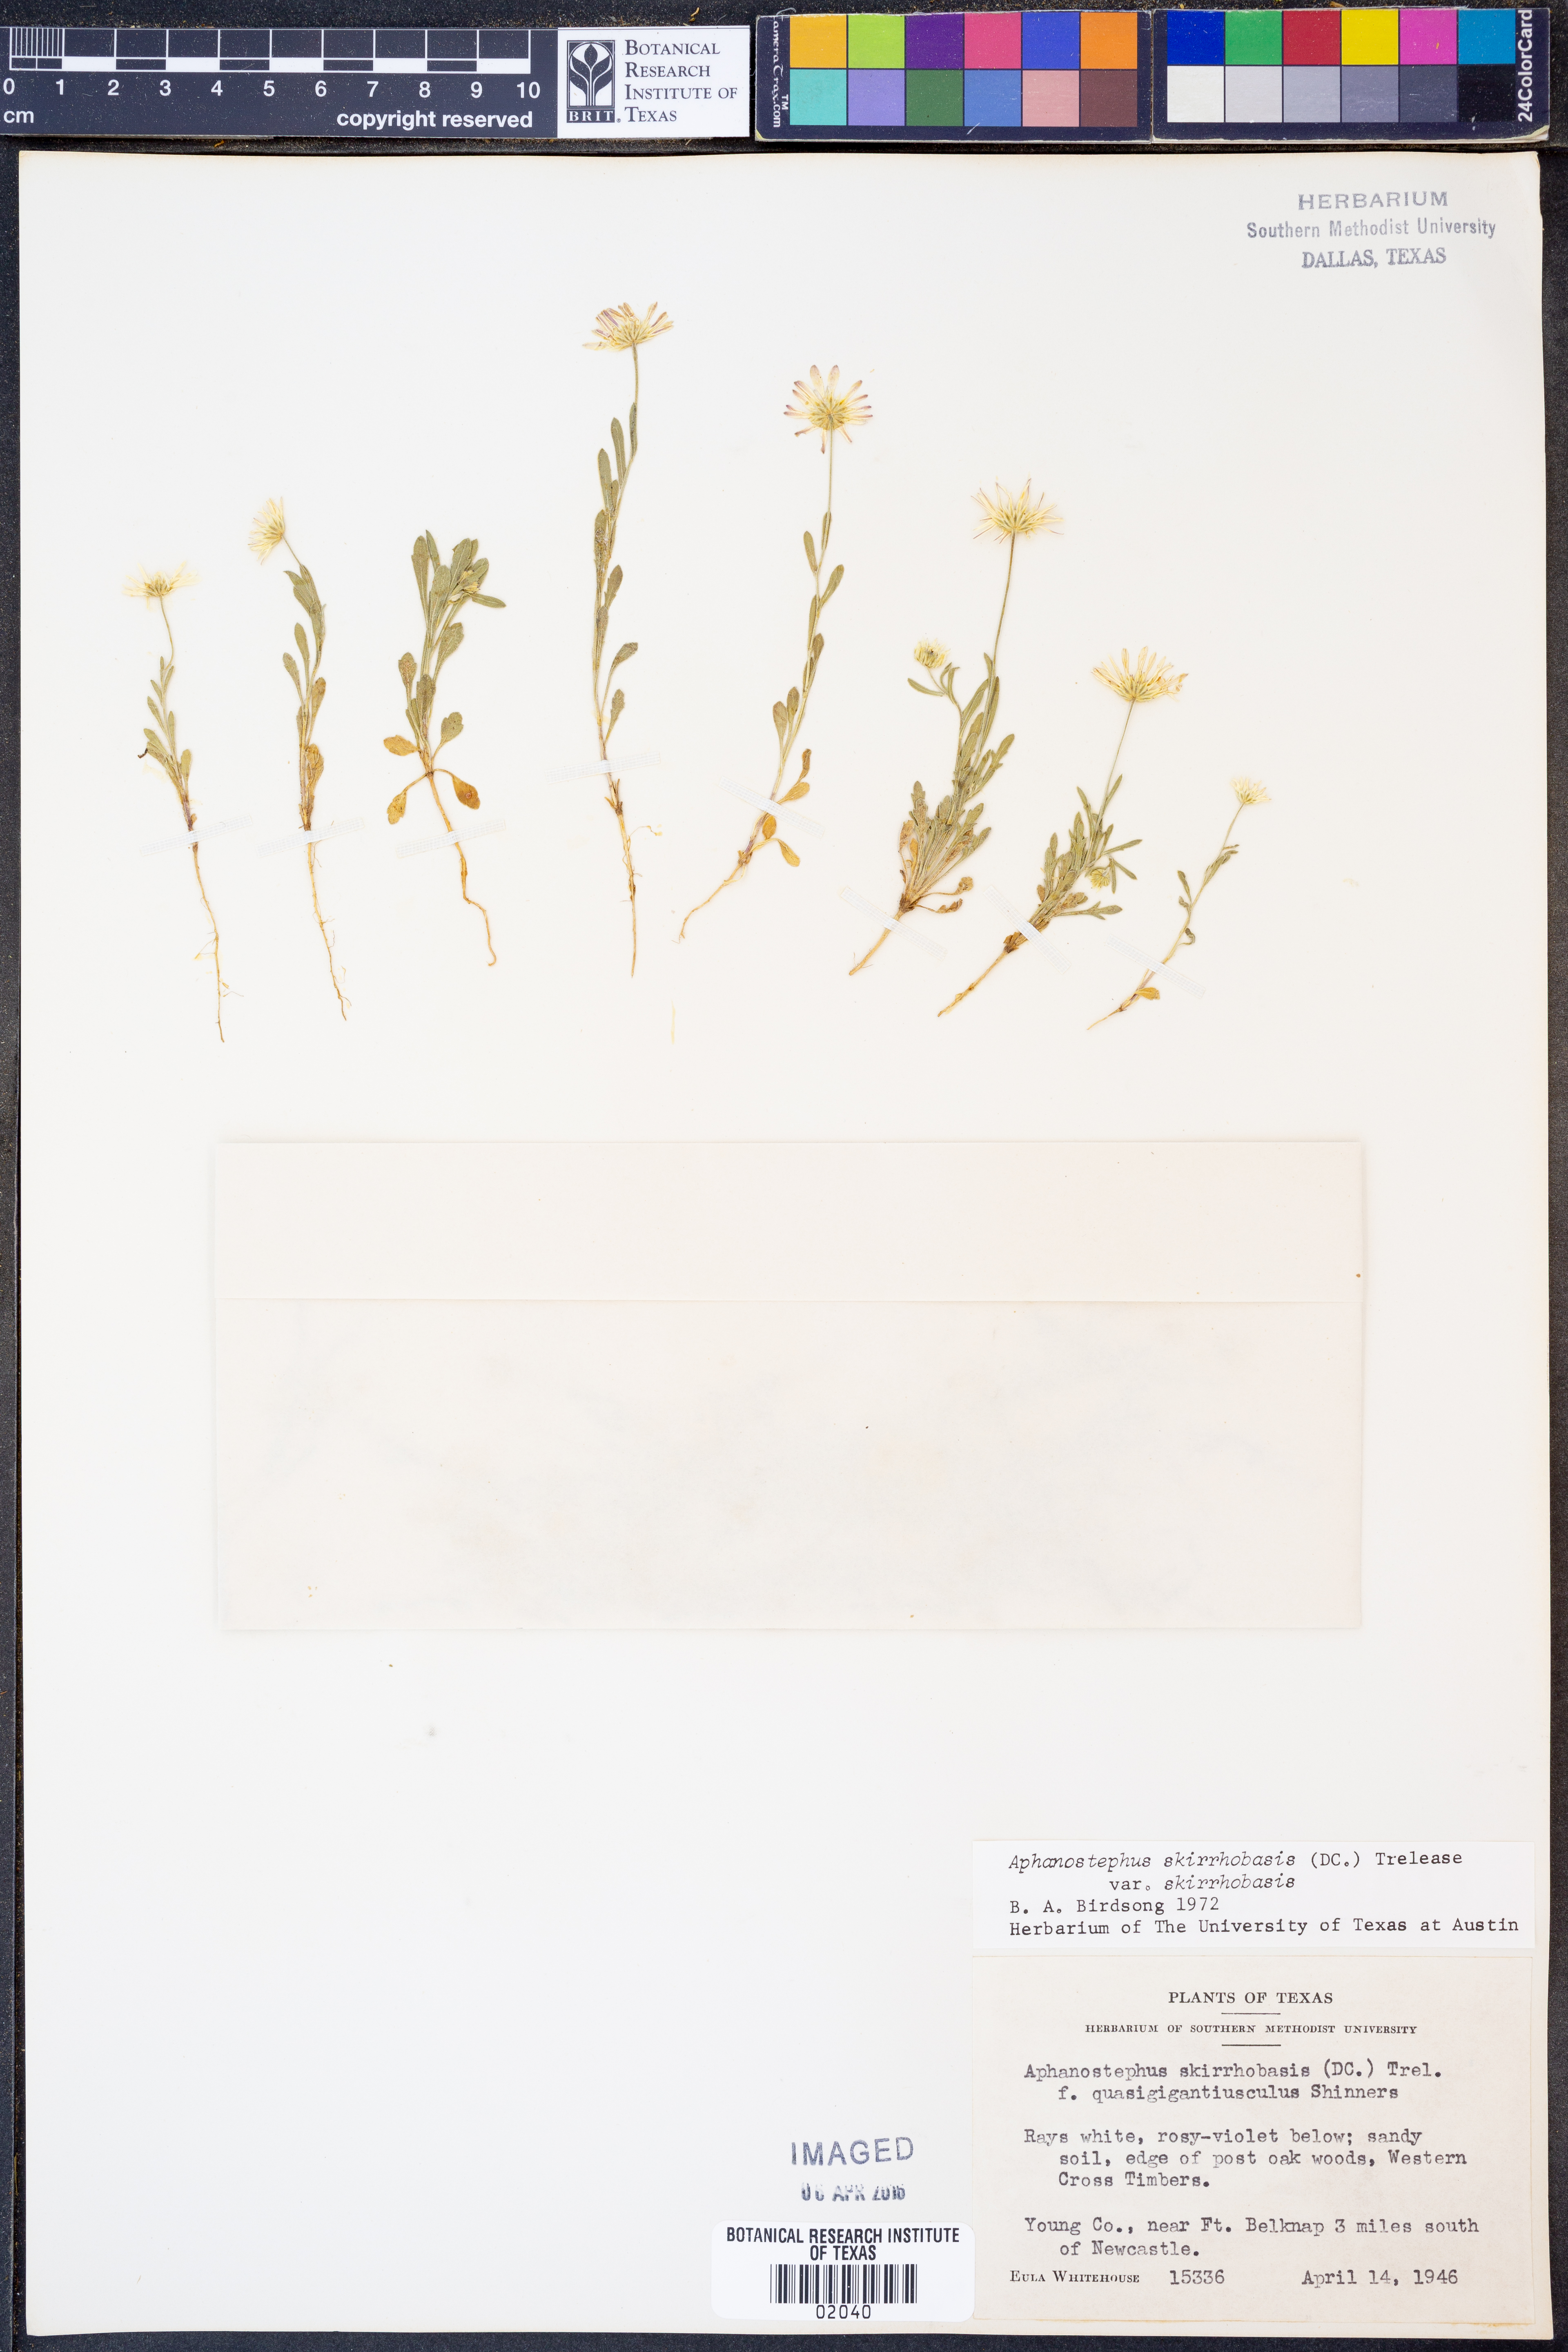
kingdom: Plantae
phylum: Tracheophyta
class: Magnoliopsida
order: Asterales
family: Asteraceae
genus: Aphanostephus
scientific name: Aphanostephus skirrhobasis
